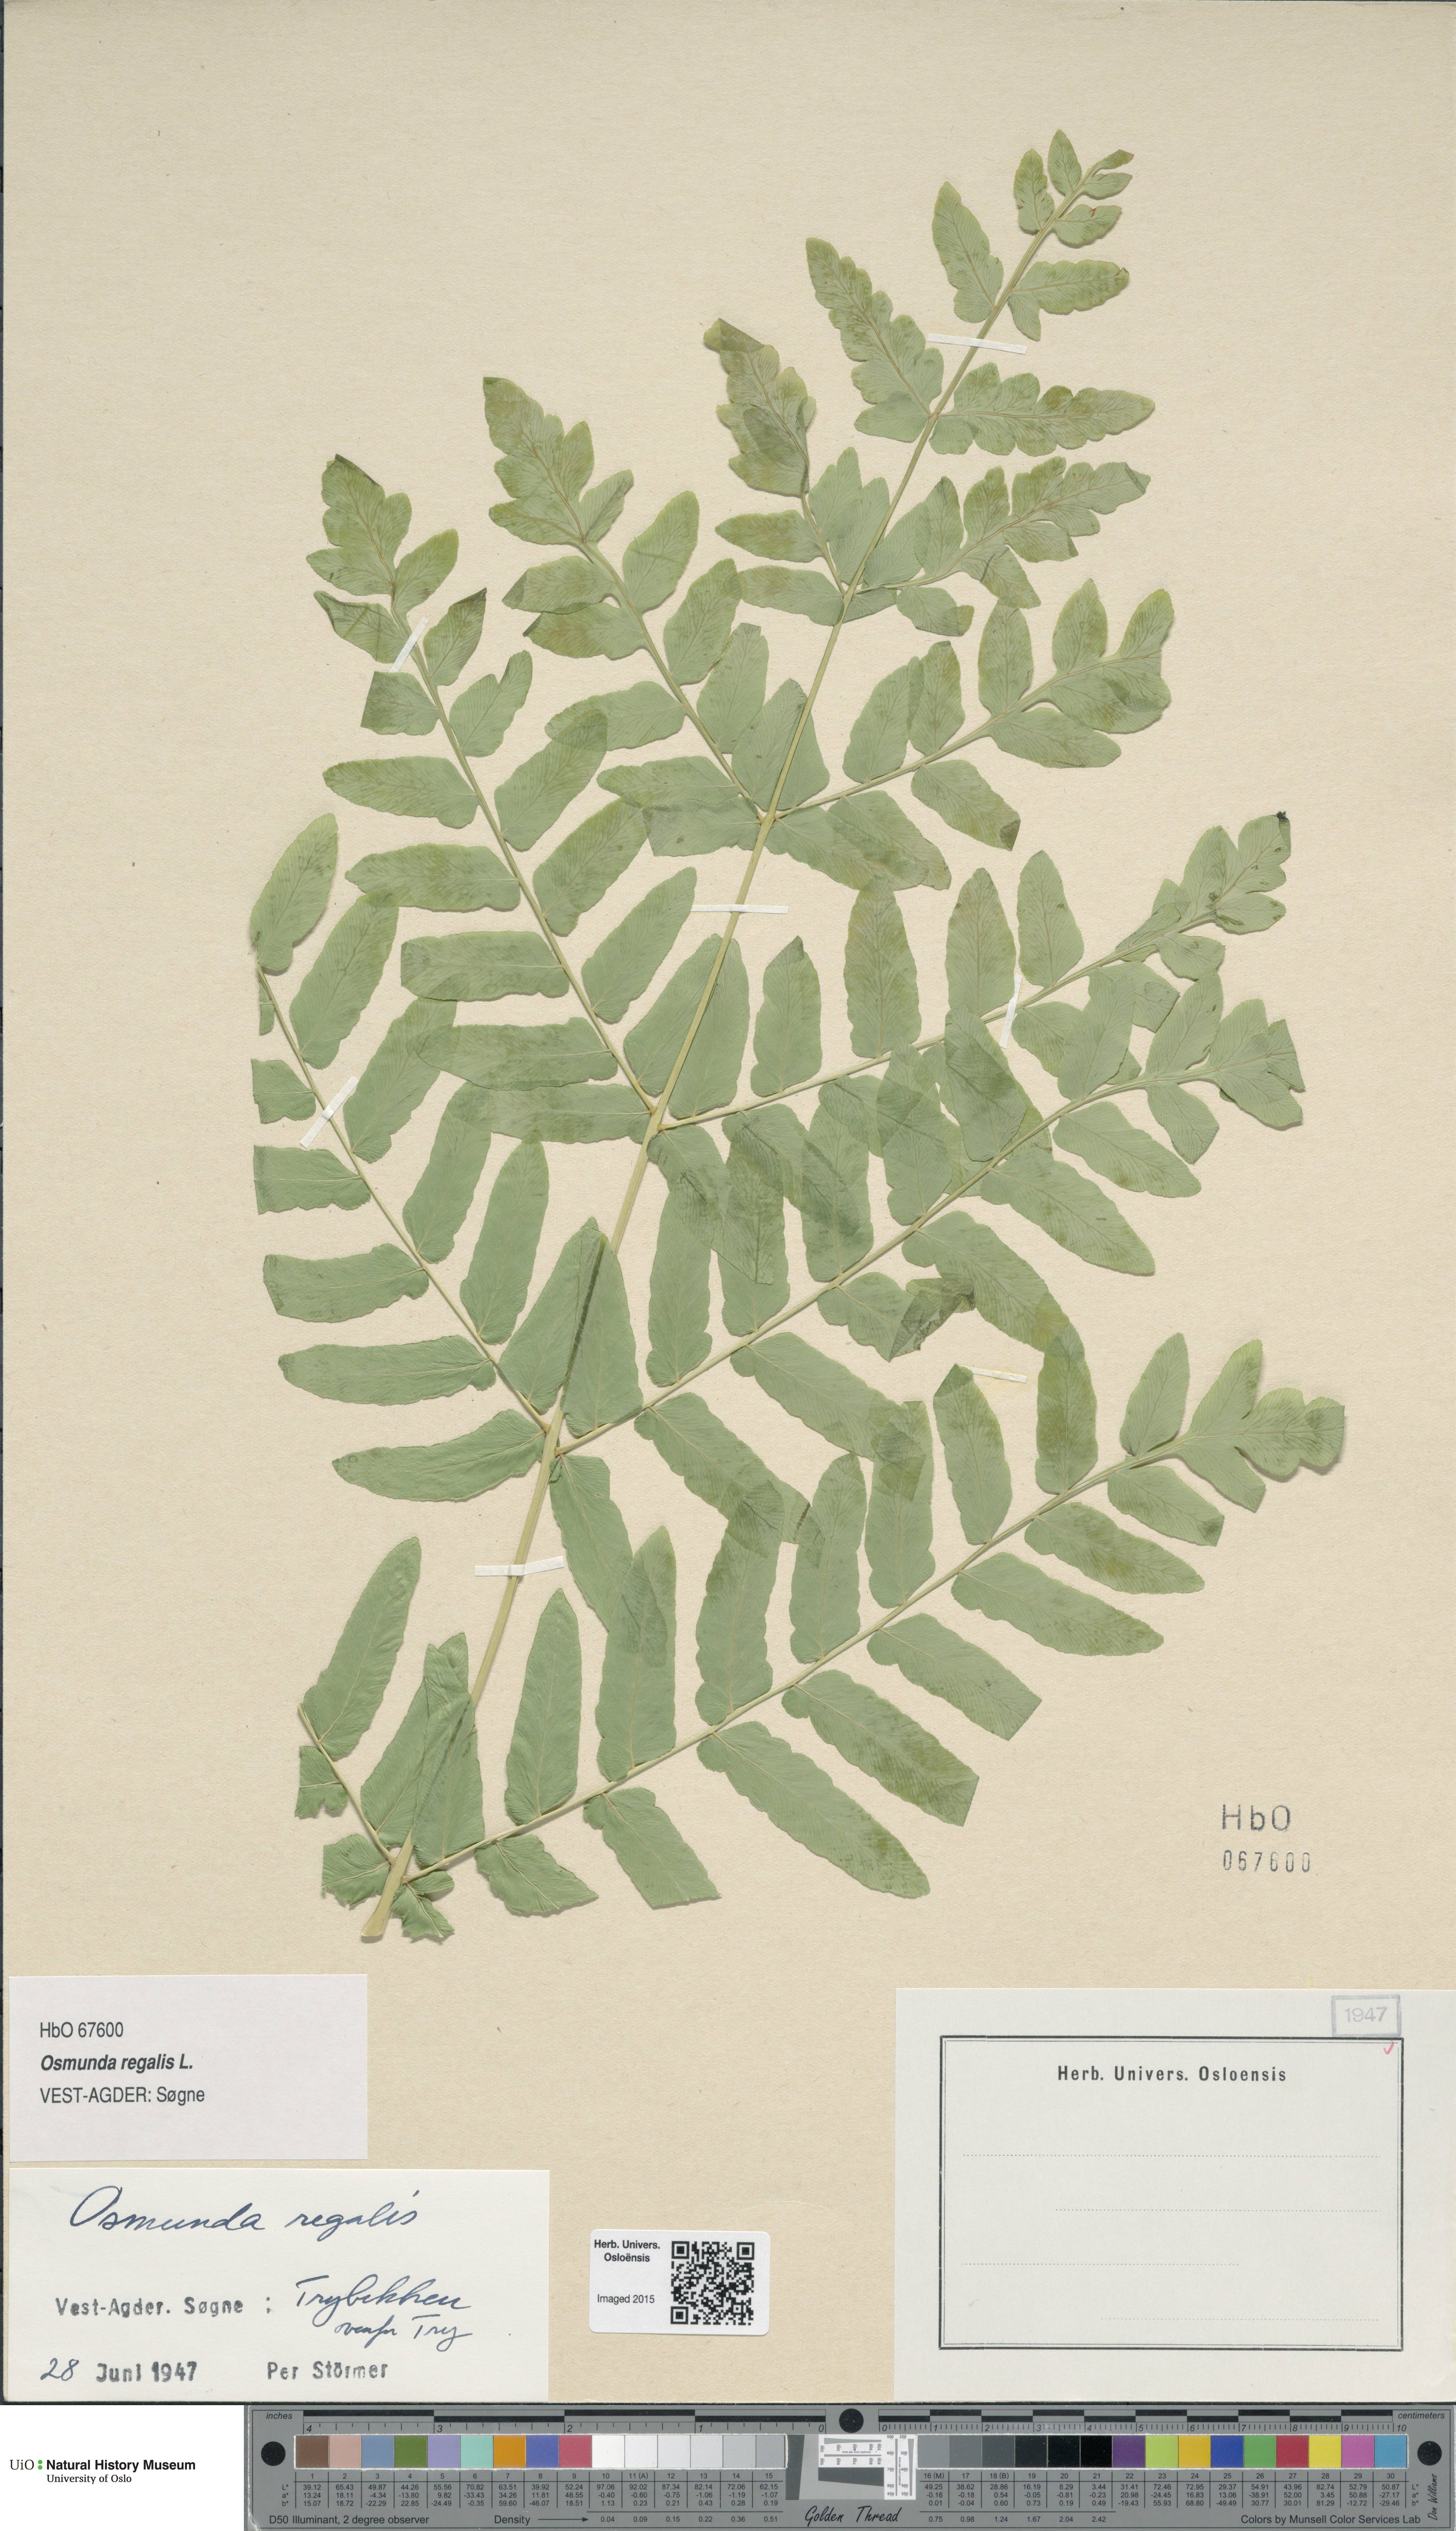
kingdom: Plantae
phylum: Tracheophyta
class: Polypodiopsida
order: Osmundales
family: Osmundaceae
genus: Osmunda
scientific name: Osmunda regalis
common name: Royal fern
